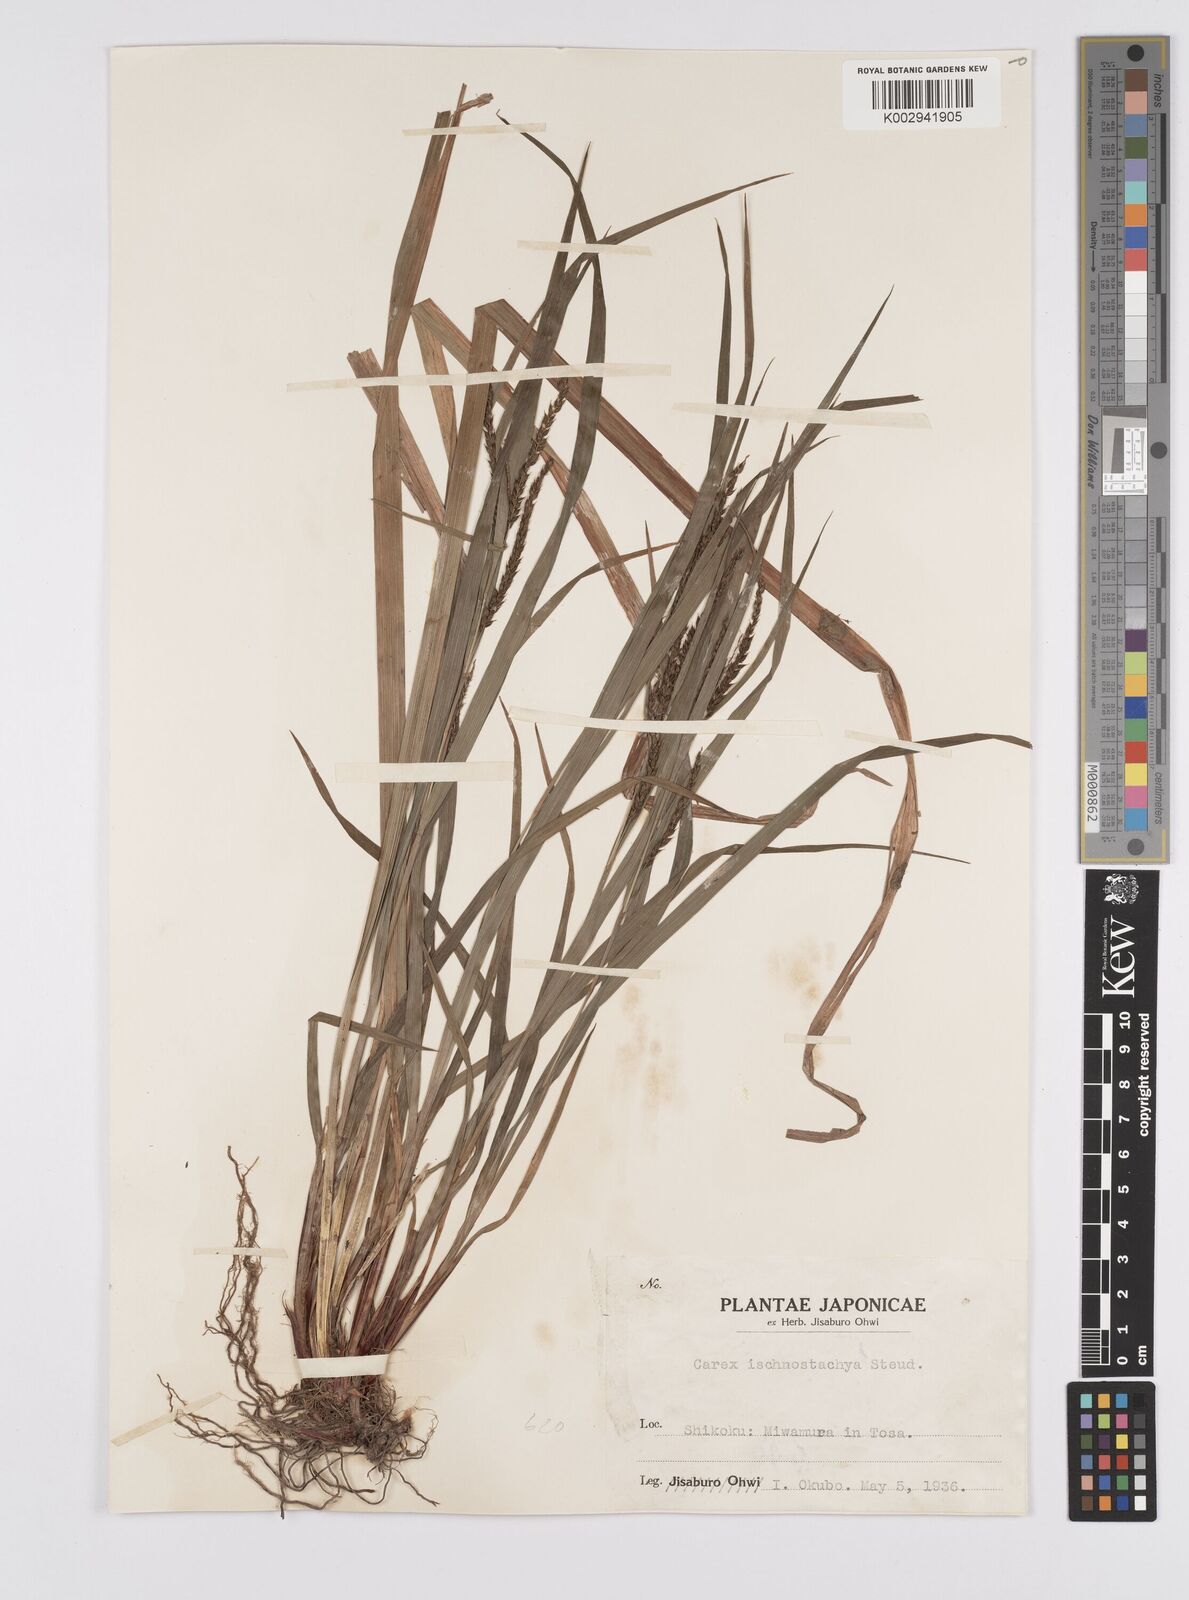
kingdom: Plantae
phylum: Tracheophyta
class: Liliopsida
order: Poales
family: Cyperaceae
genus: Carex
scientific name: Carex ischnostachya
